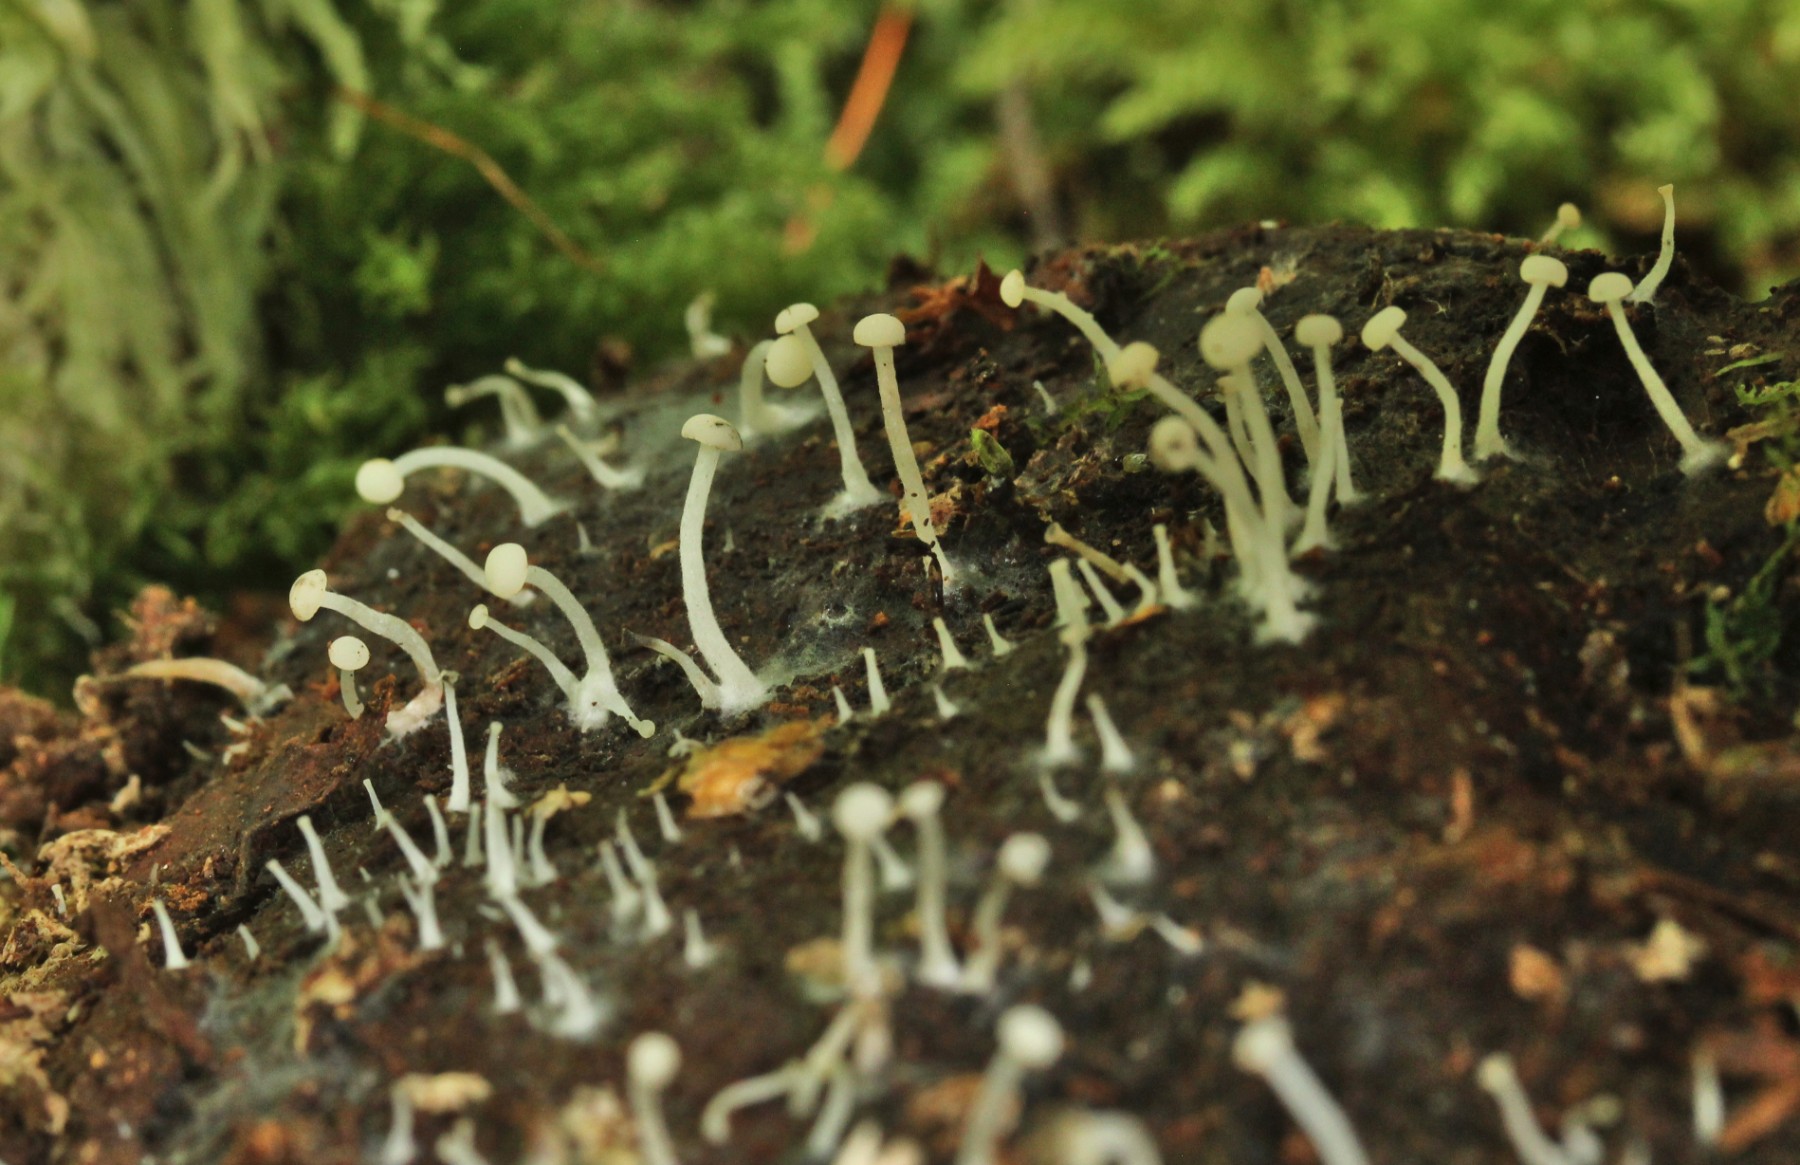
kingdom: Fungi
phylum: Ascomycota
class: Leotiomycetes
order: Helotiales
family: Tricladiaceae
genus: Cudoniella
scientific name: Cudoniella acicularis
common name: ege-dyndskive
